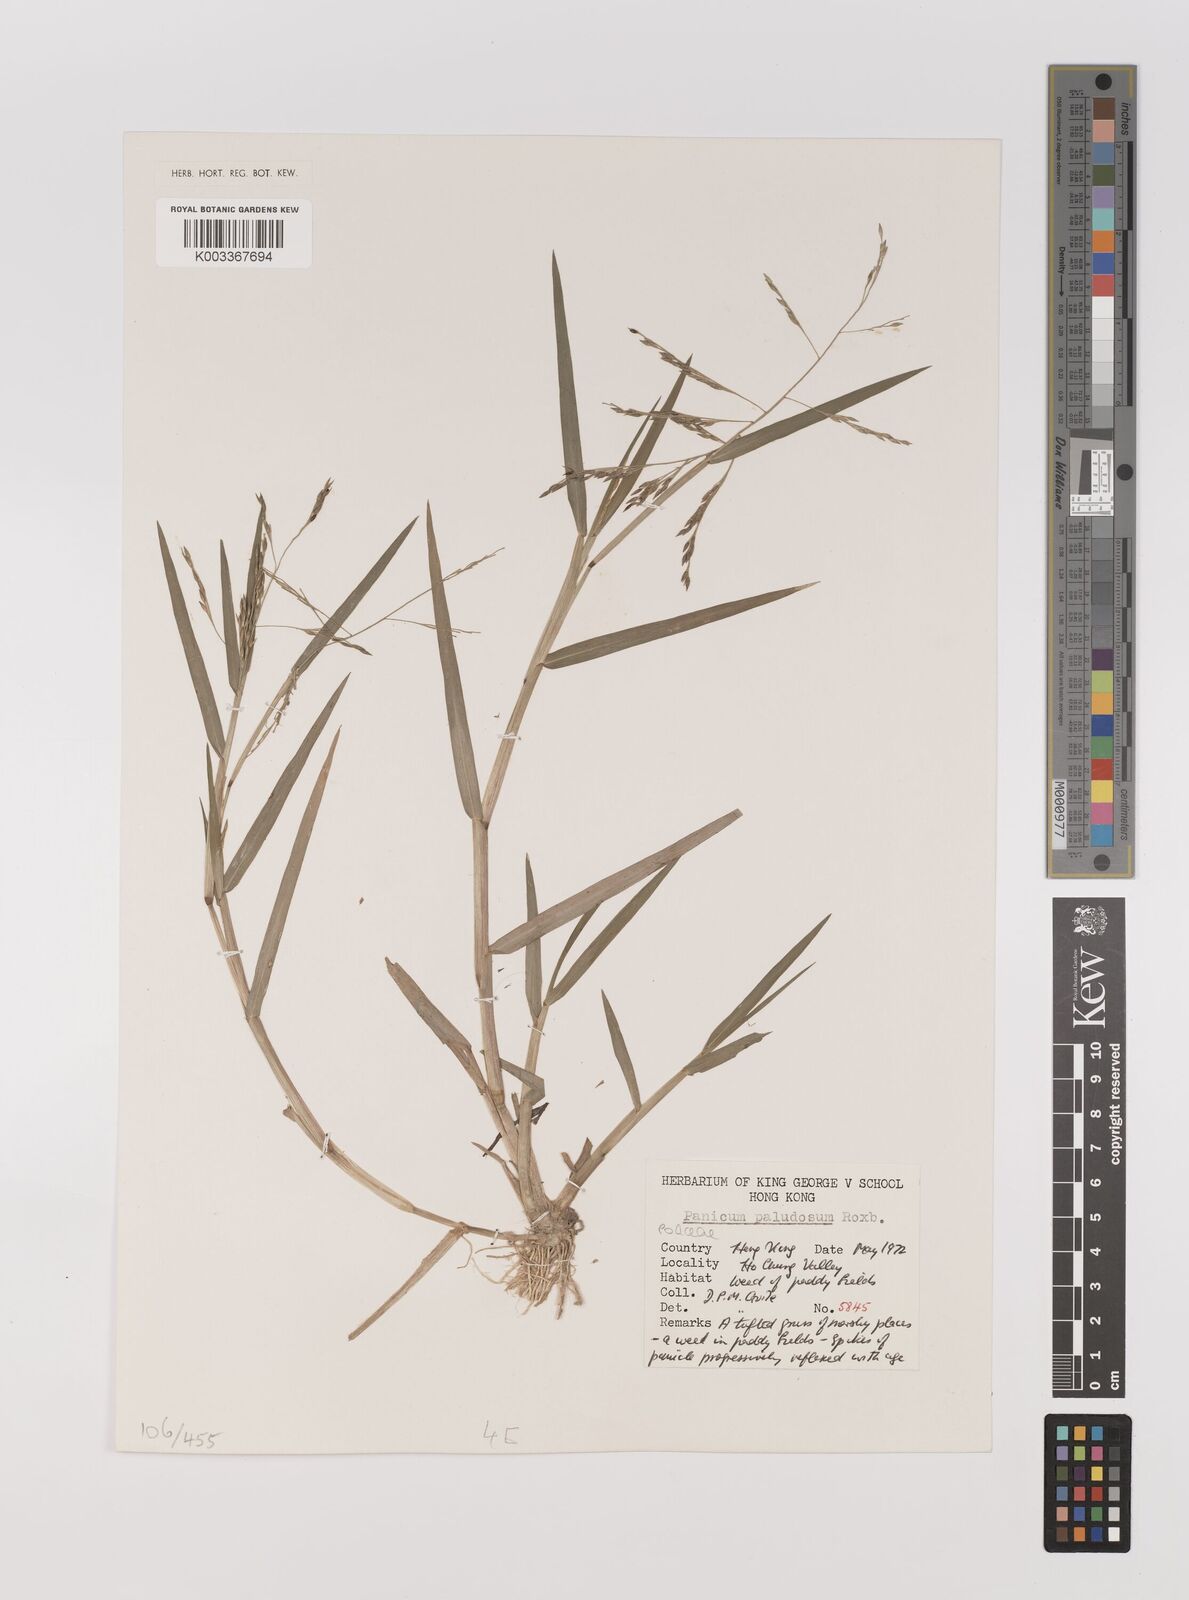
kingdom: Plantae
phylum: Tracheophyta
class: Liliopsida
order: Poales
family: Poaceae
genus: Panicum
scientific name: Panicum dichotomiflorum
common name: Autumn millet
